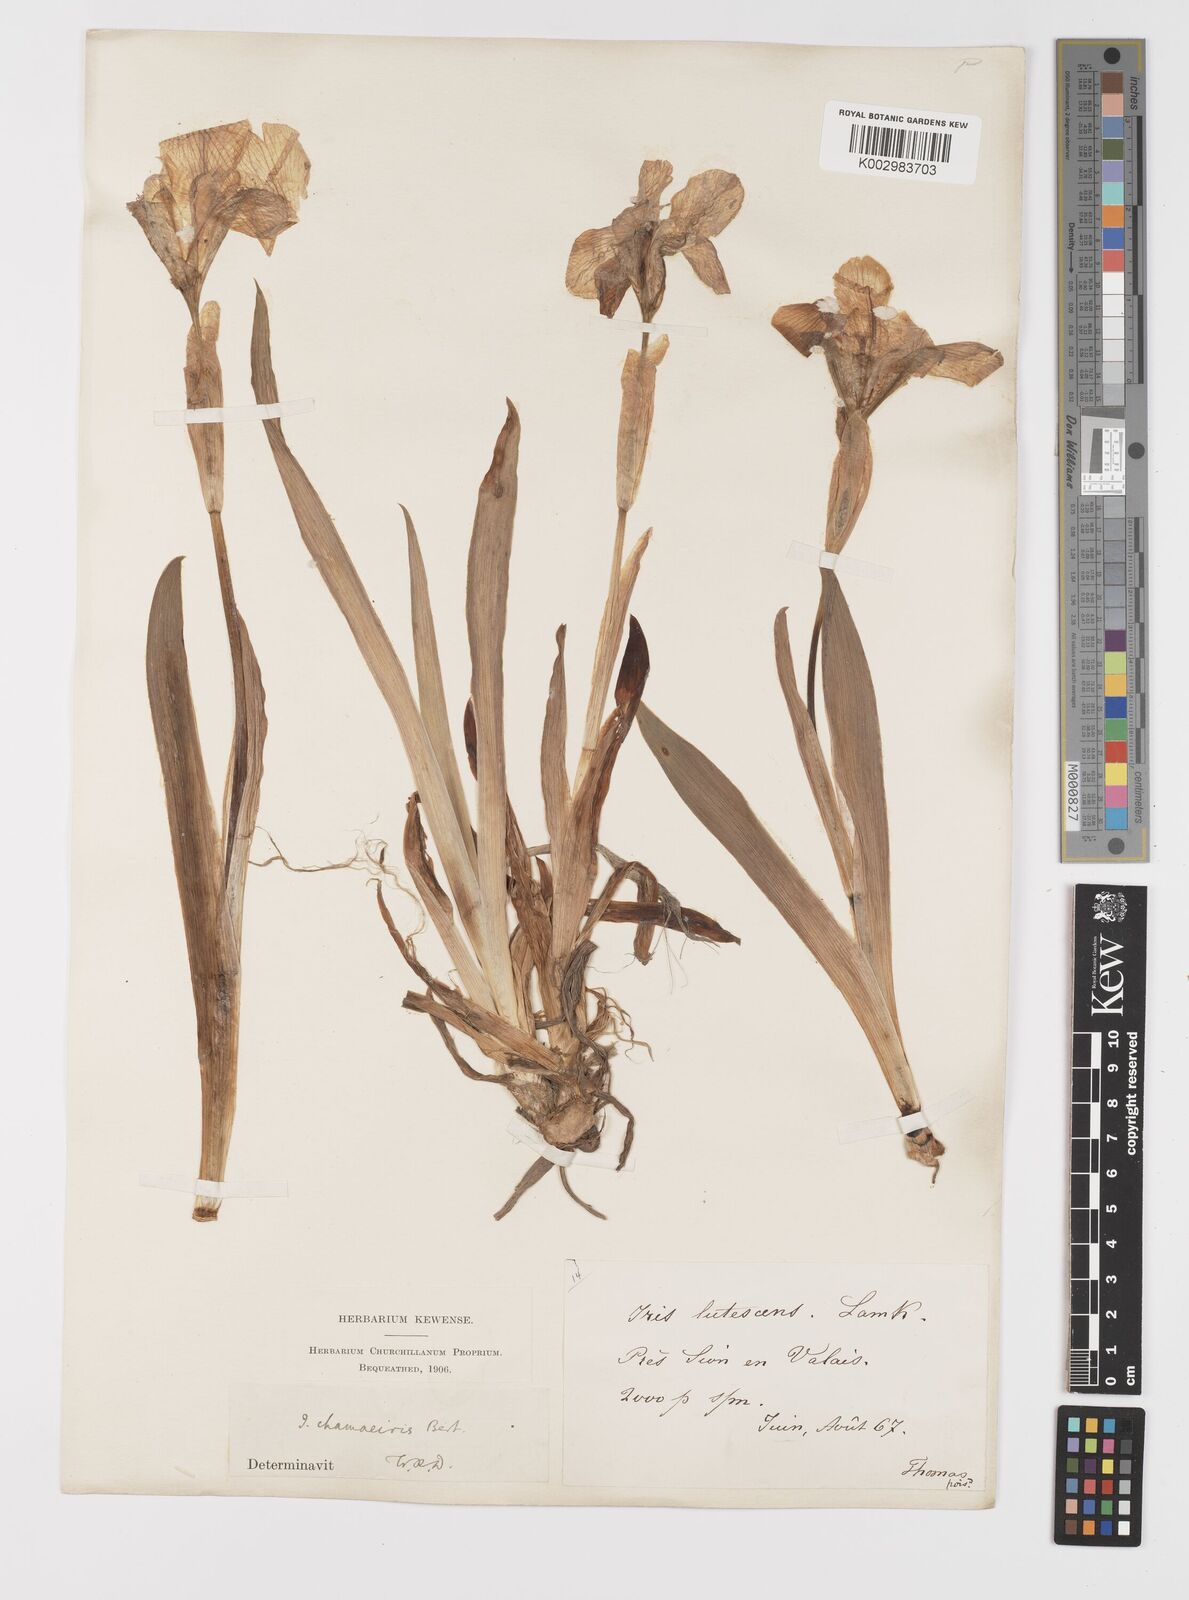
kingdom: Plantae
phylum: Tracheophyta
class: Liliopsida
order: Asparagales
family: Iridaceae
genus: Iris
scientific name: Iris lutescens
